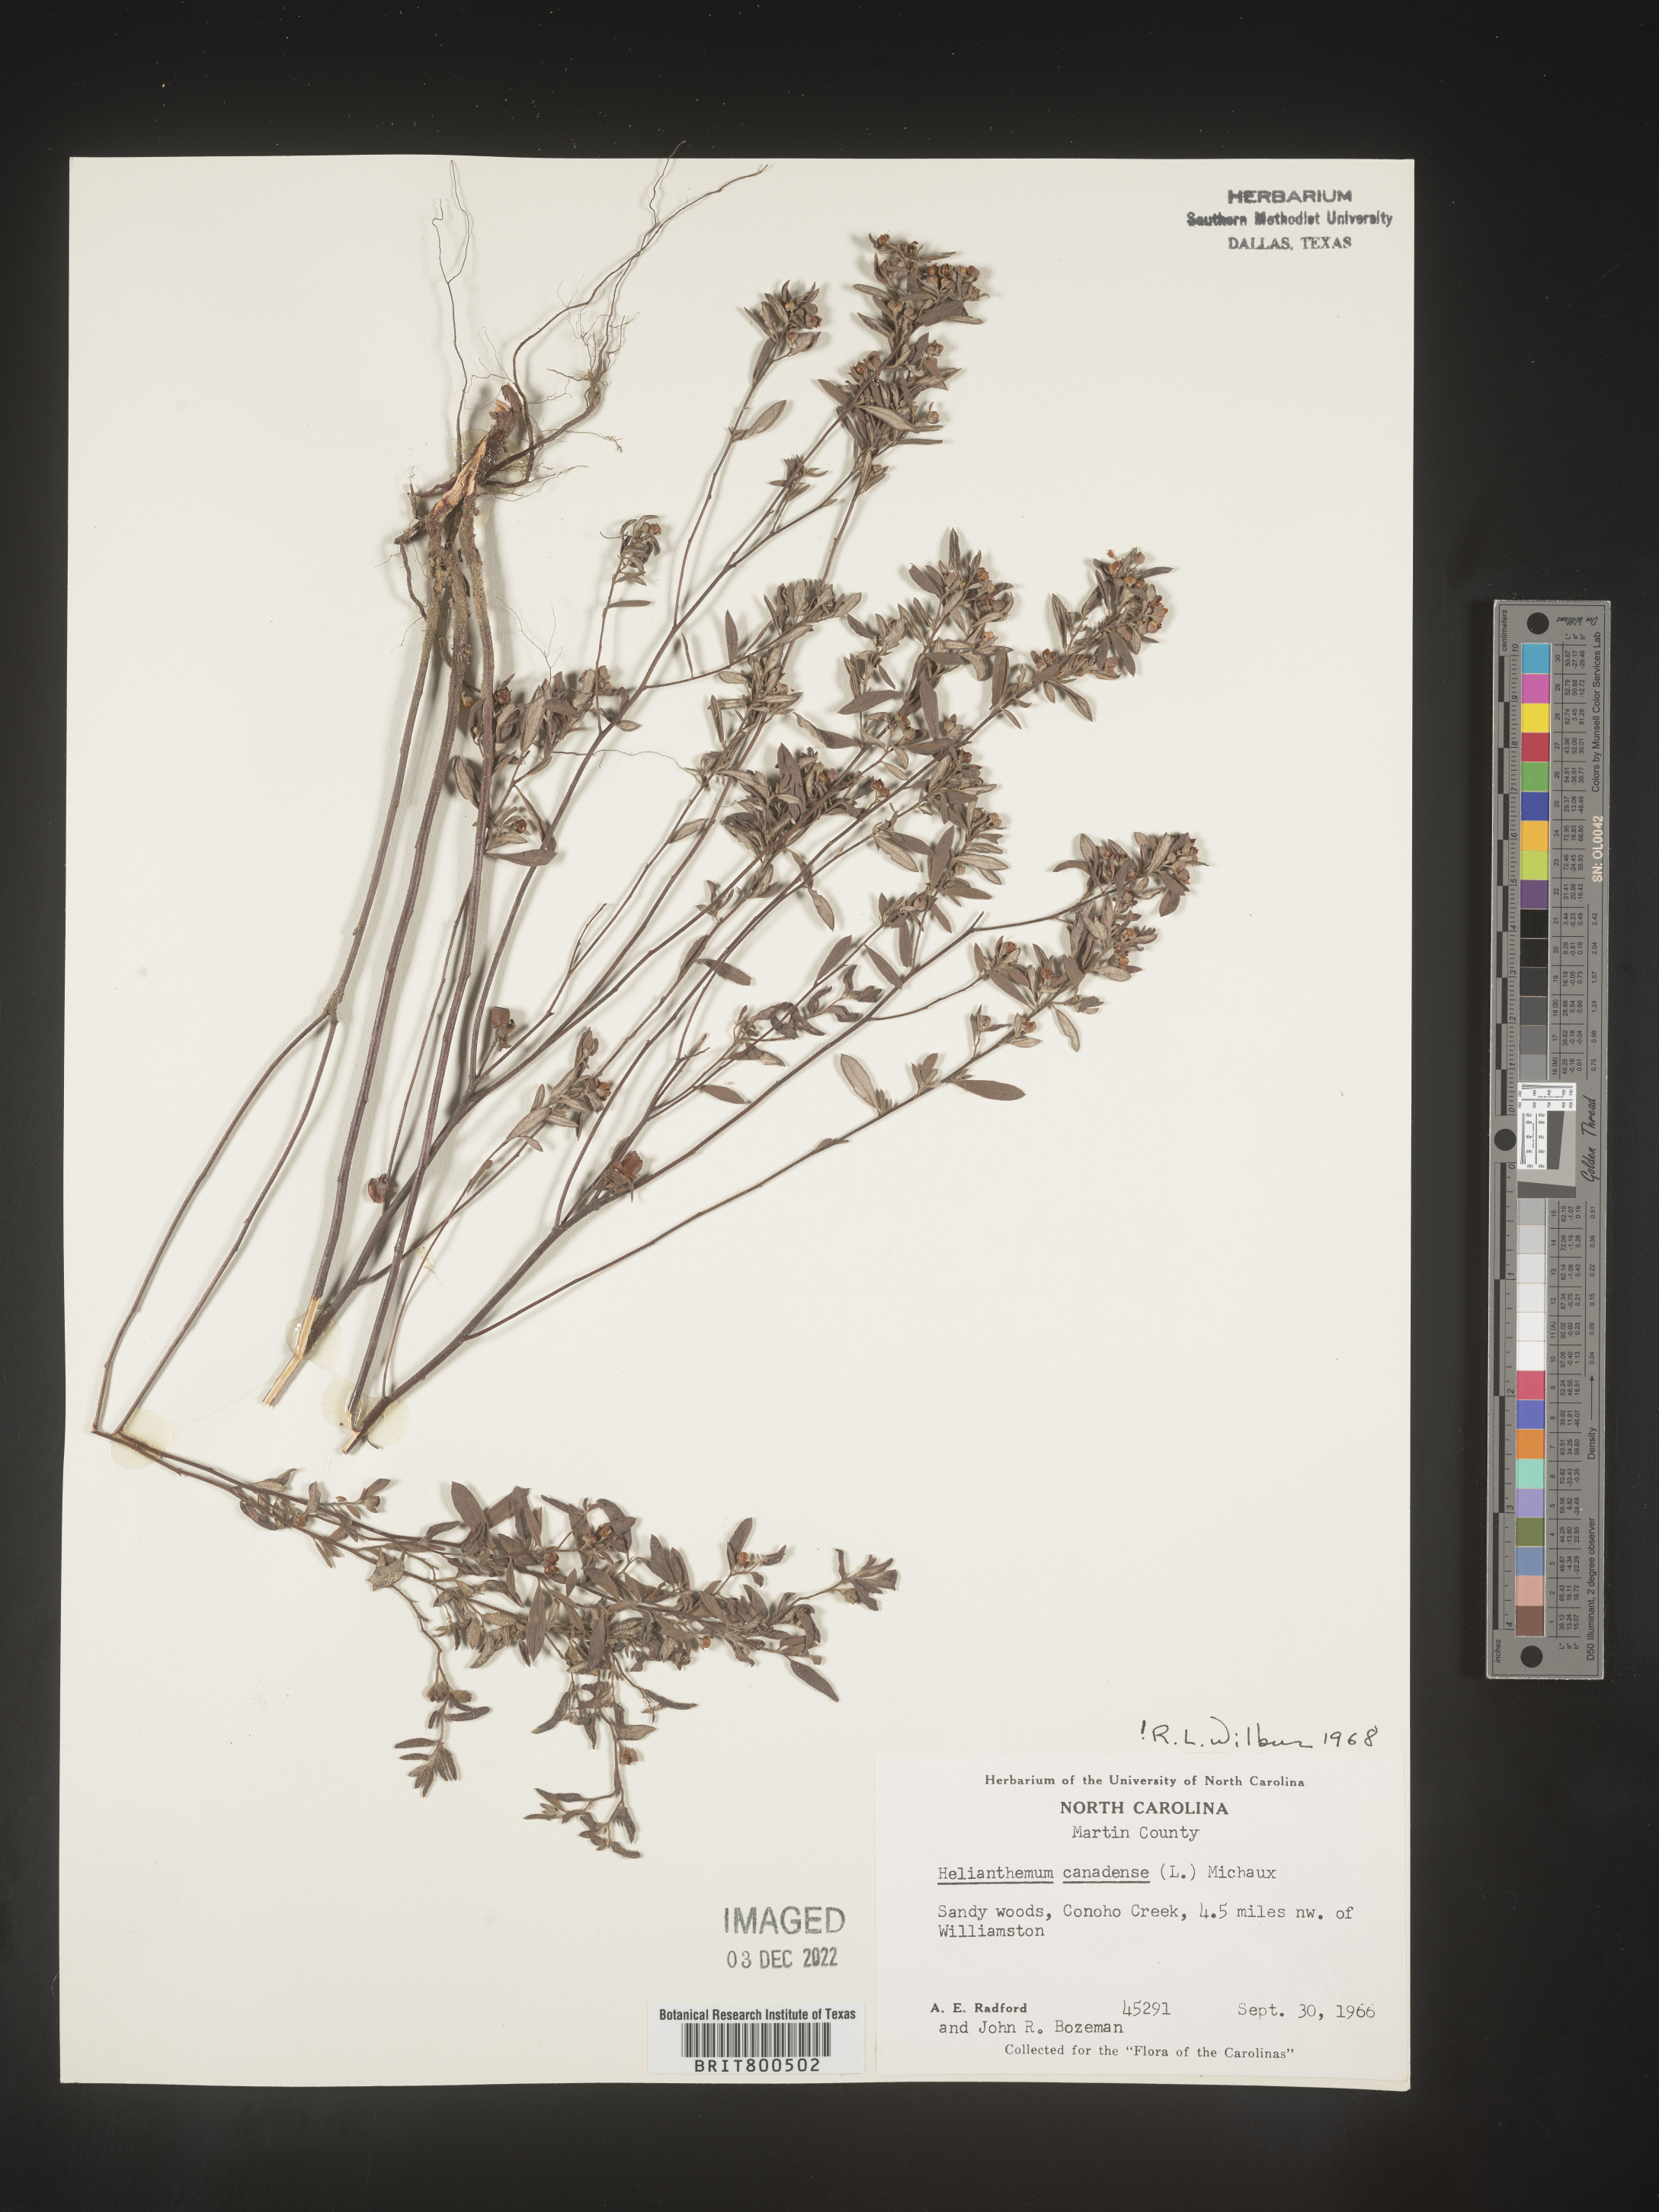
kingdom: Plantae
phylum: Tracheophyta
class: Magnoliopsida
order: Malvales
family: Cistaceae
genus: Crocanthemum
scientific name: Crocanthemum canadense
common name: Canada frostweed
